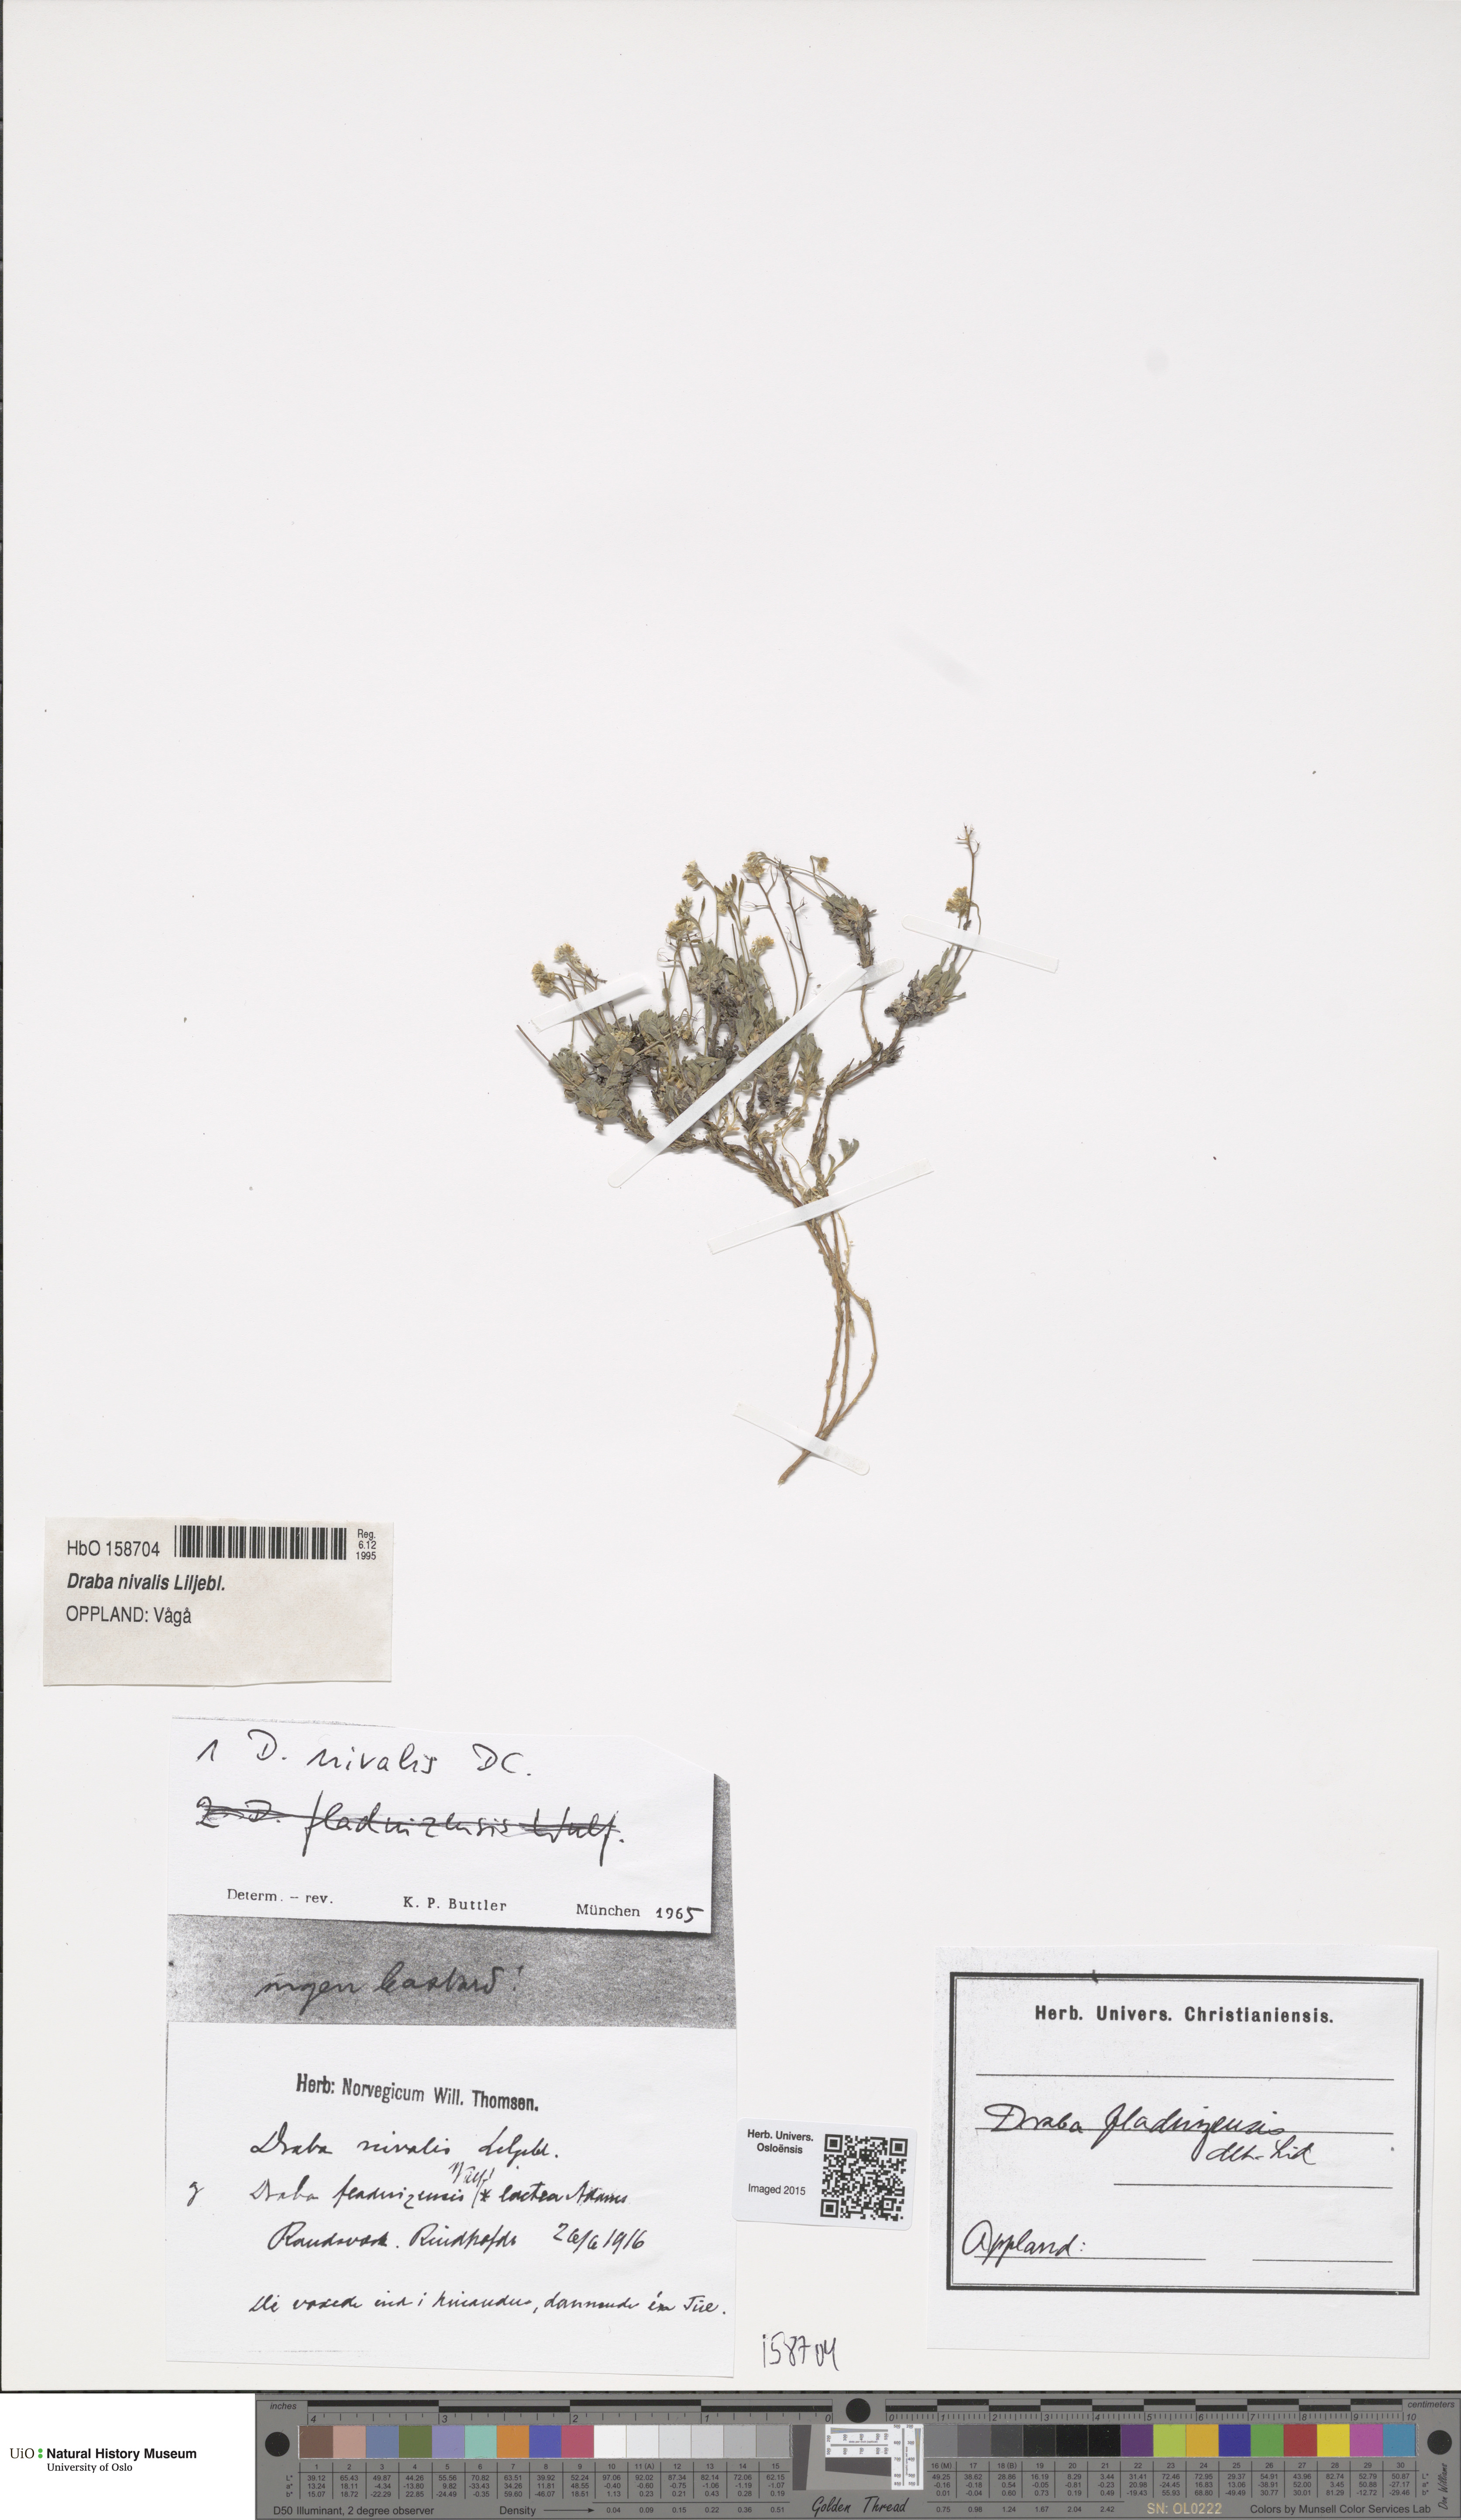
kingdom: Plantae
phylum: Tracheophyta
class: Magnoliopsida
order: Brassicales
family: Brassicaceae
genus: Draba
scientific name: Draba nivalis
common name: Snow draba
